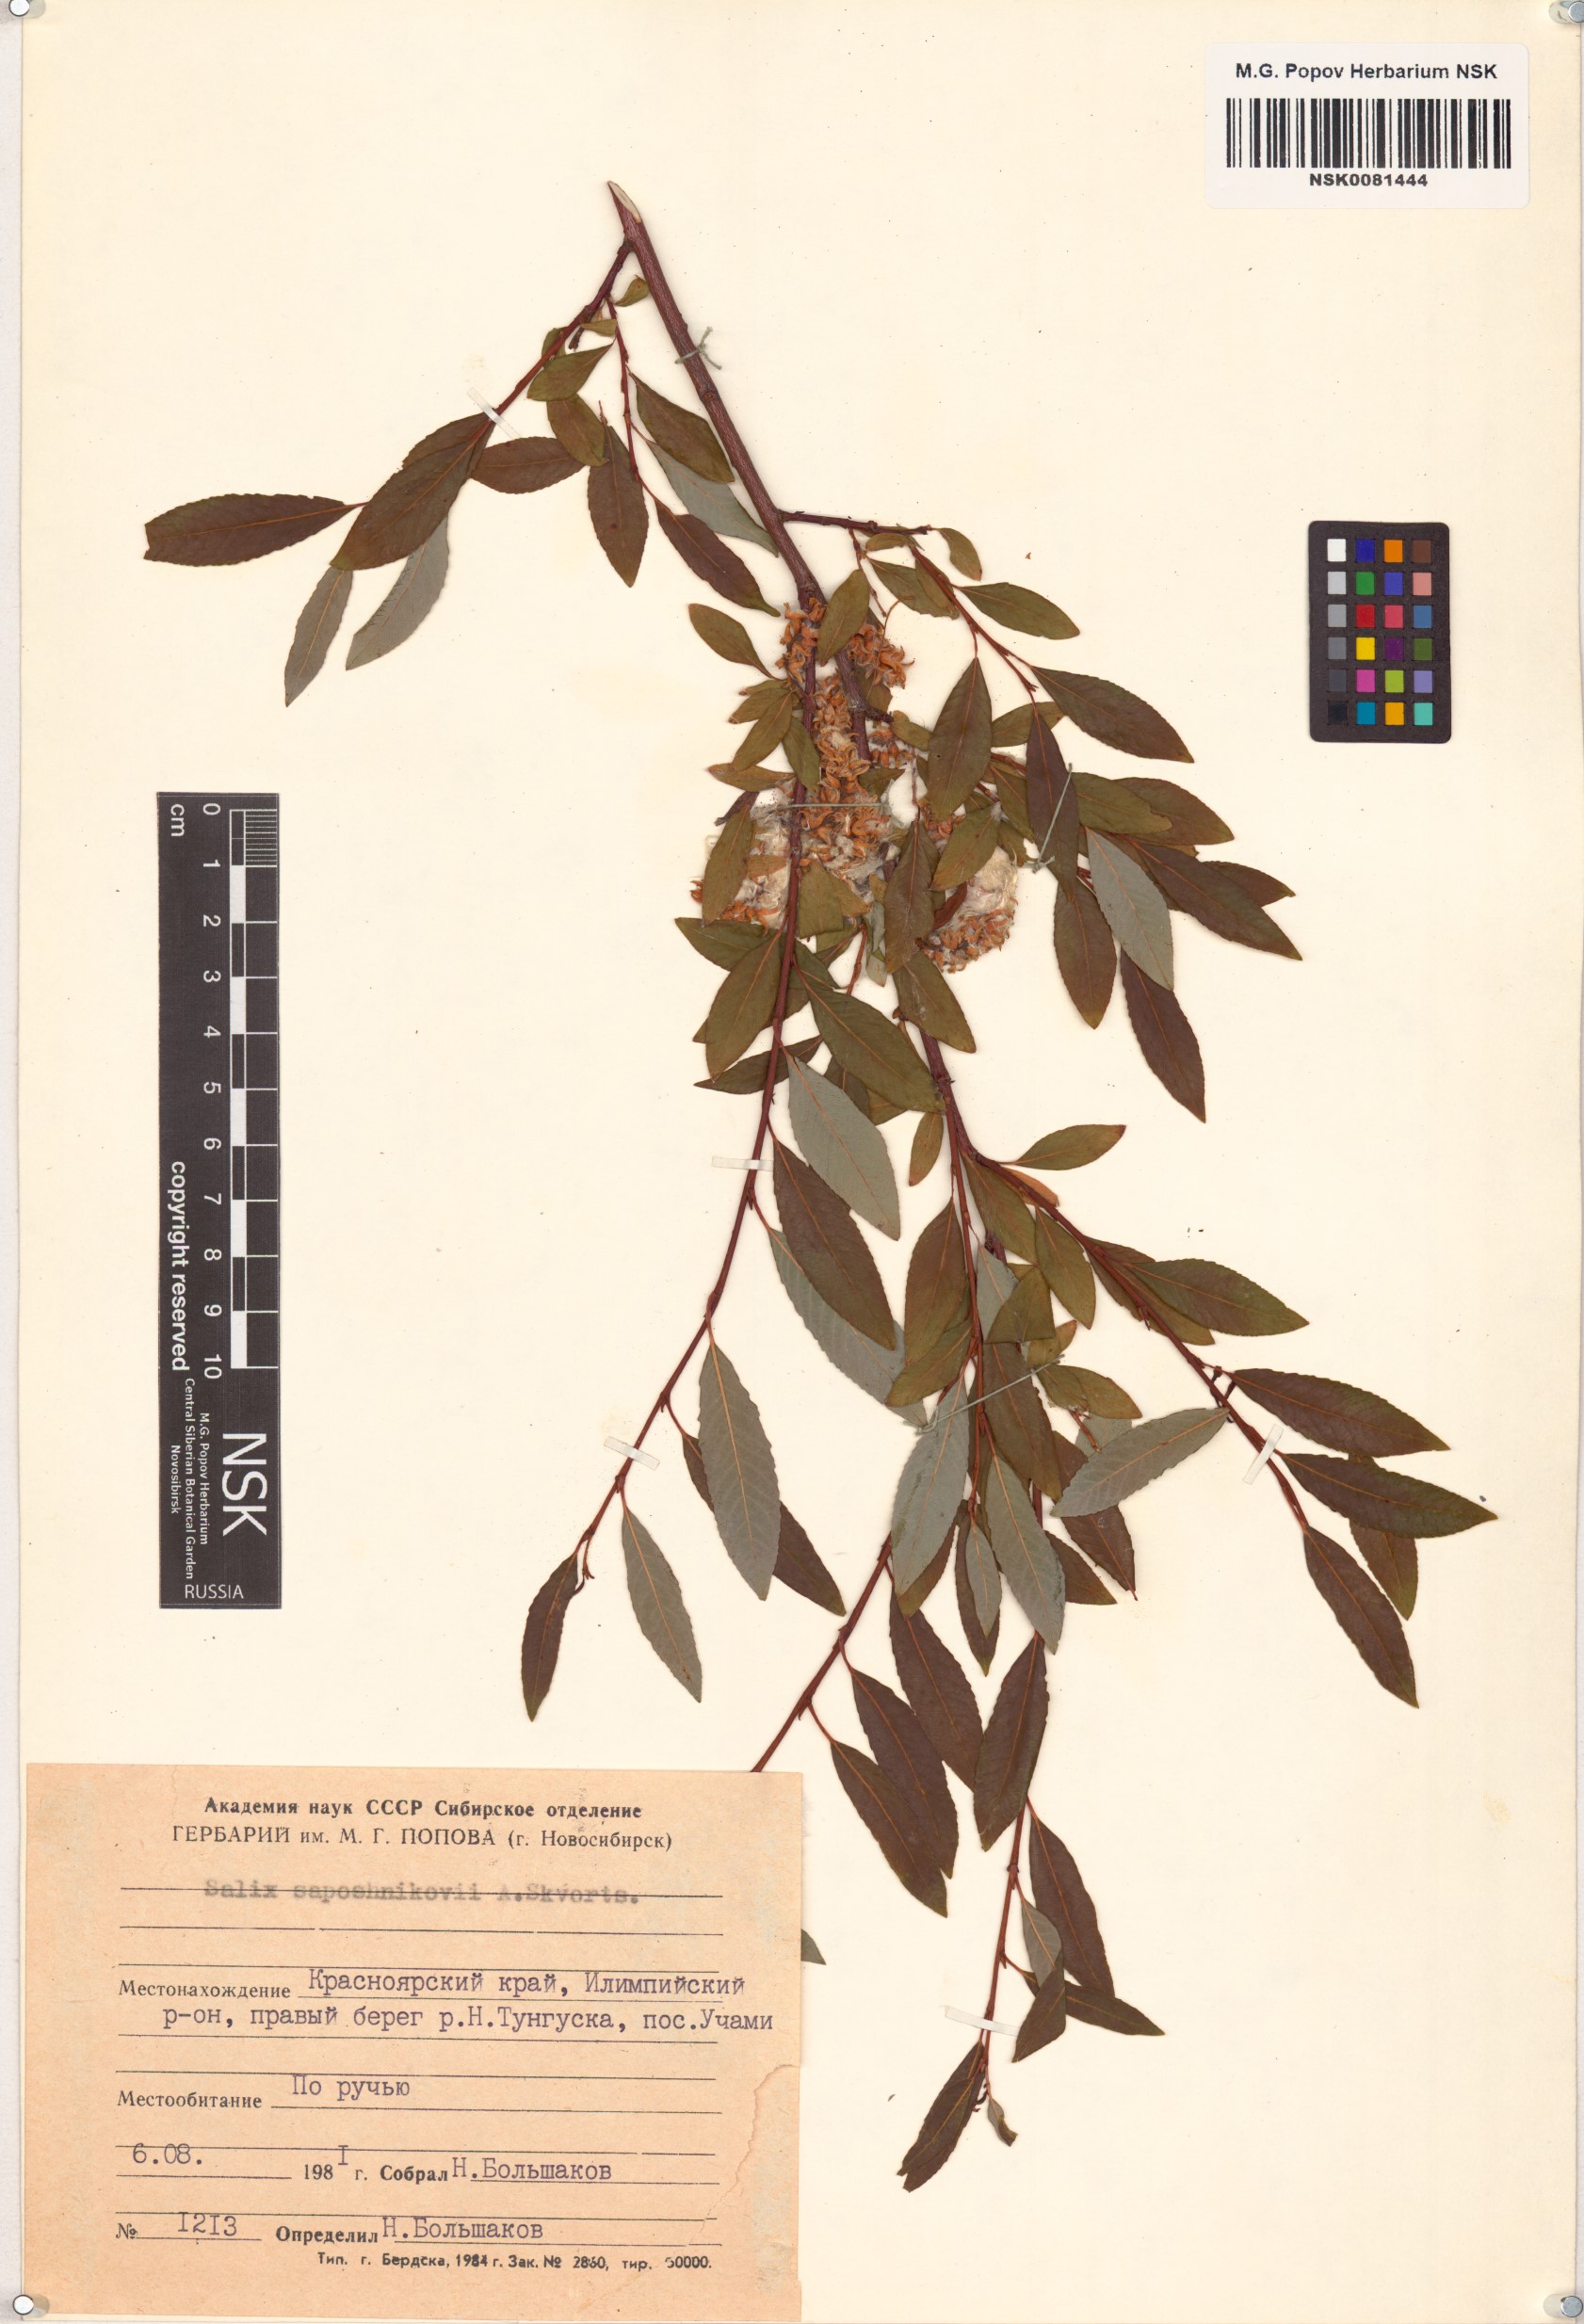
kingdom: Plantae
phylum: Tracheophyta
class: Magnoliopsida
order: Malpighiales
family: Salicaceae
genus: Salix
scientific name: Salix saposhnikovii
